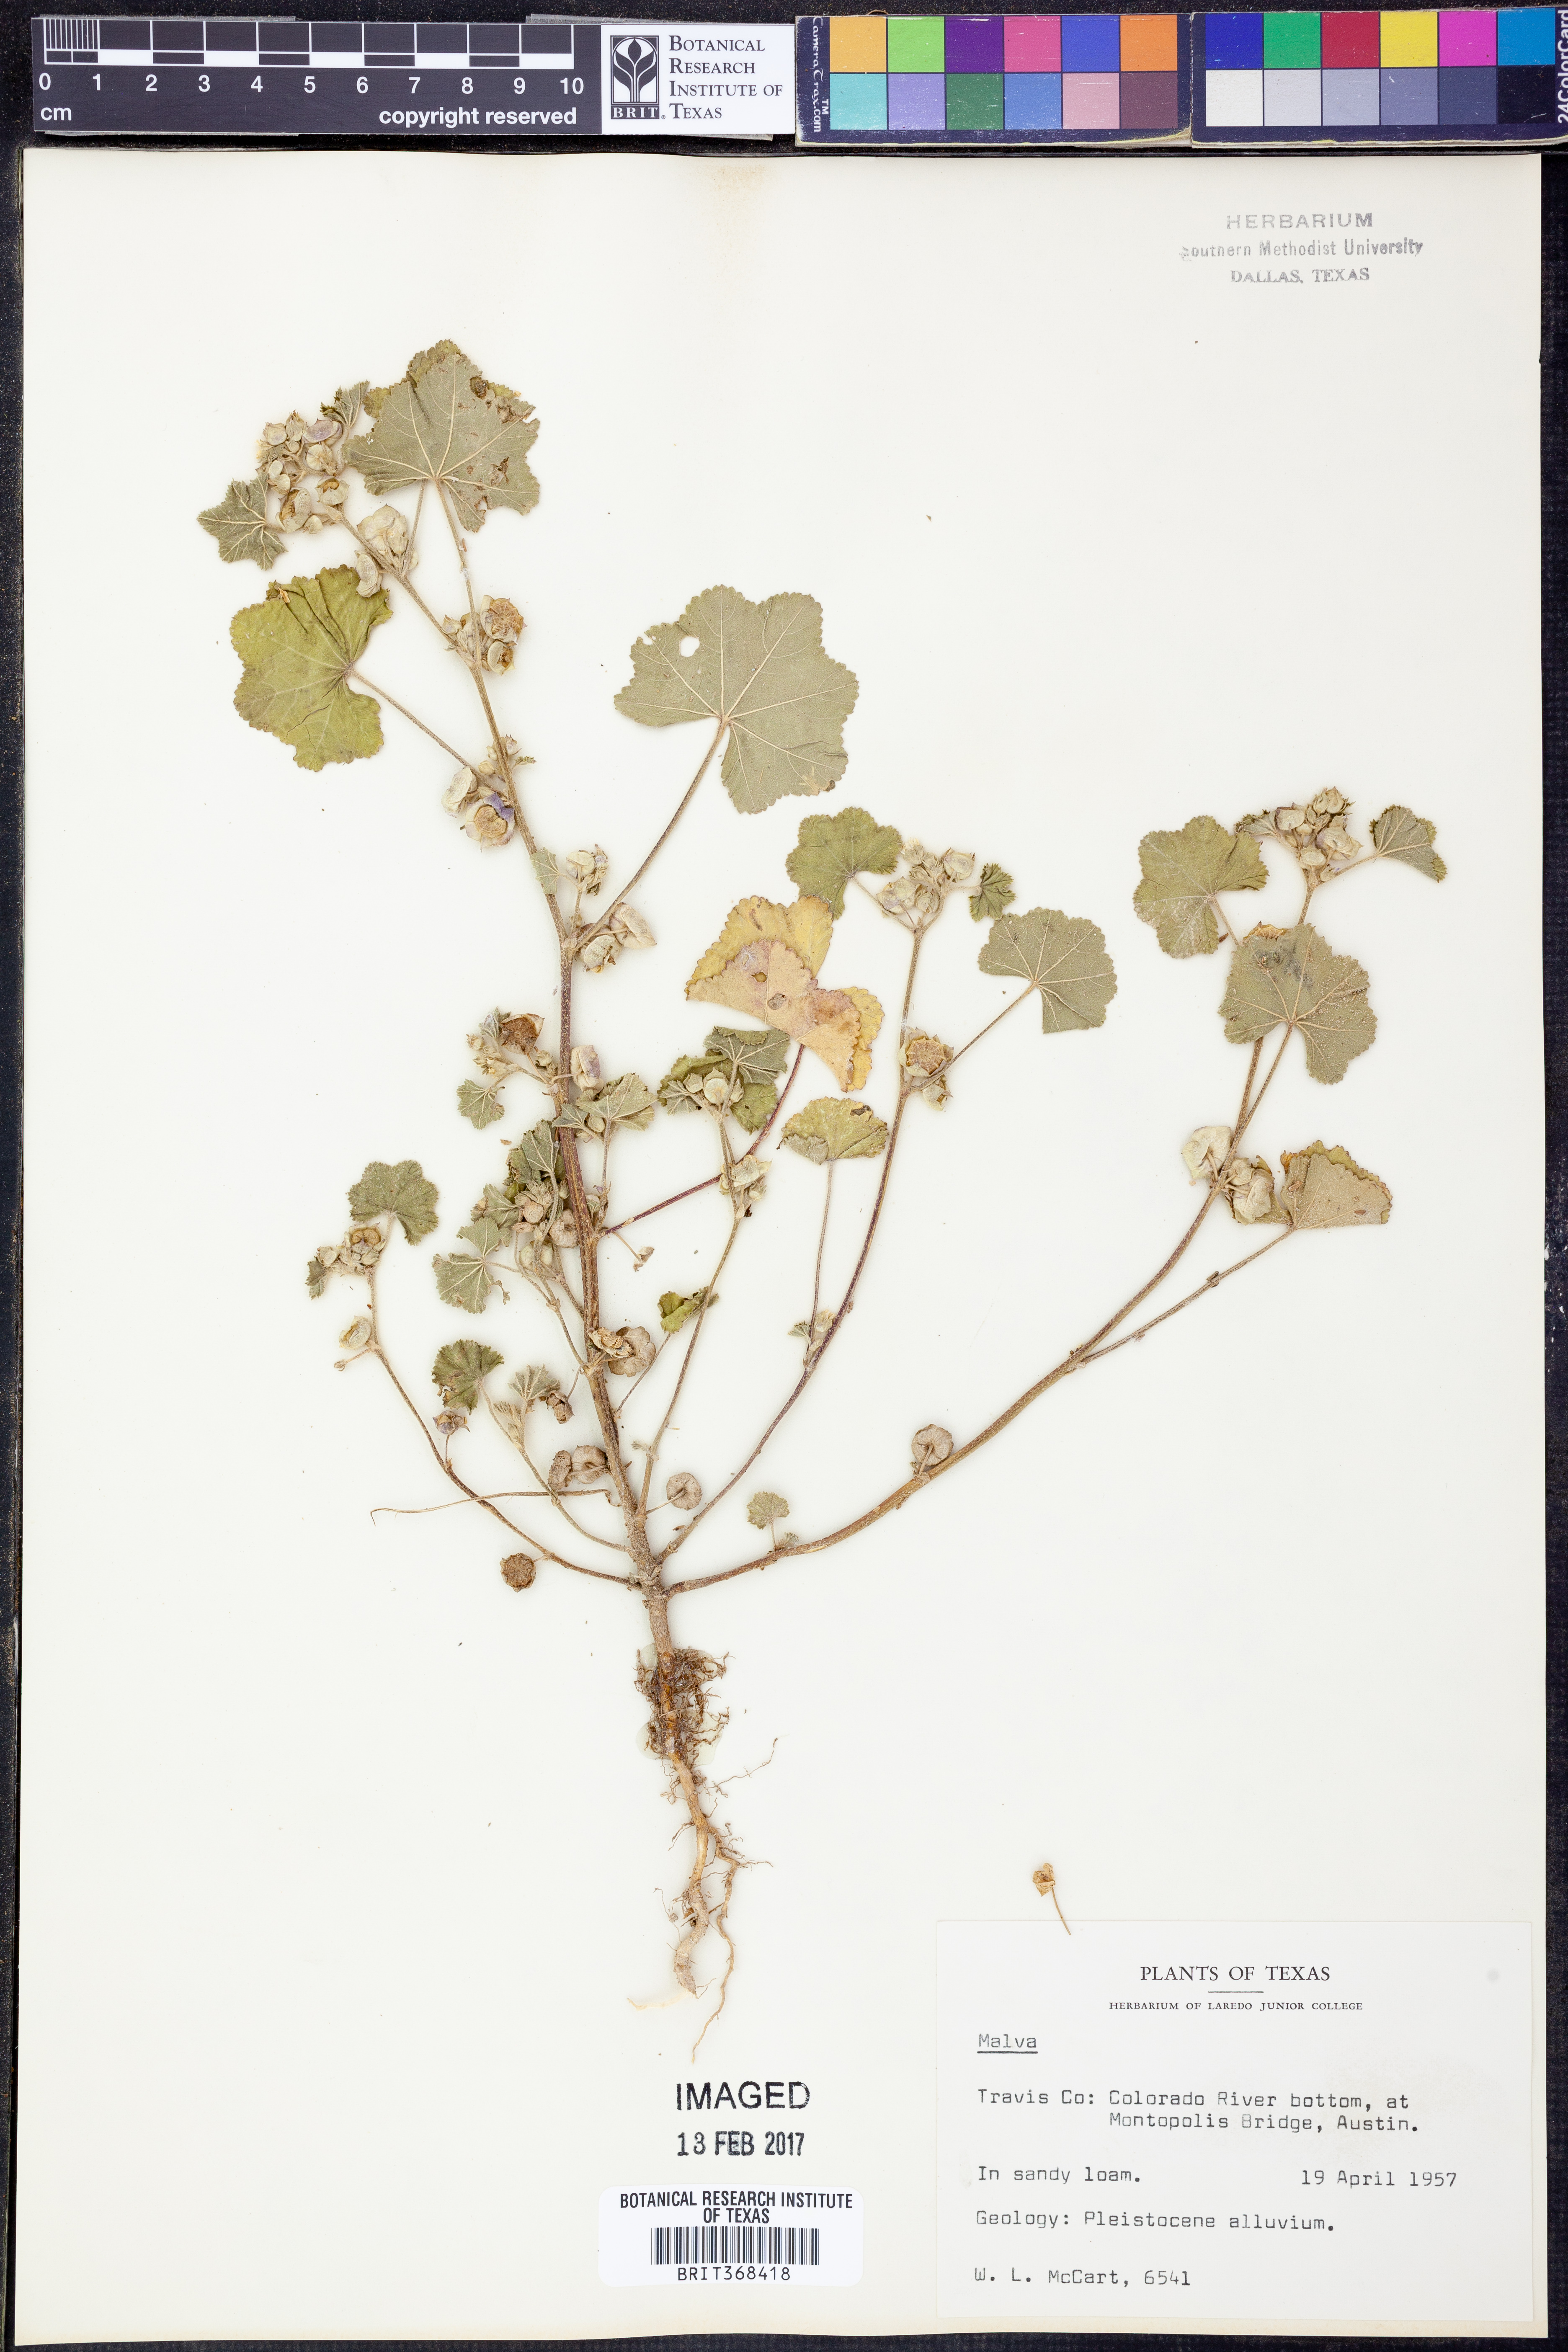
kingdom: Plantae
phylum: Tracheophyta
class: Magnoliopsida
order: Malvales
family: Malvaceae
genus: Malva
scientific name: Malva
